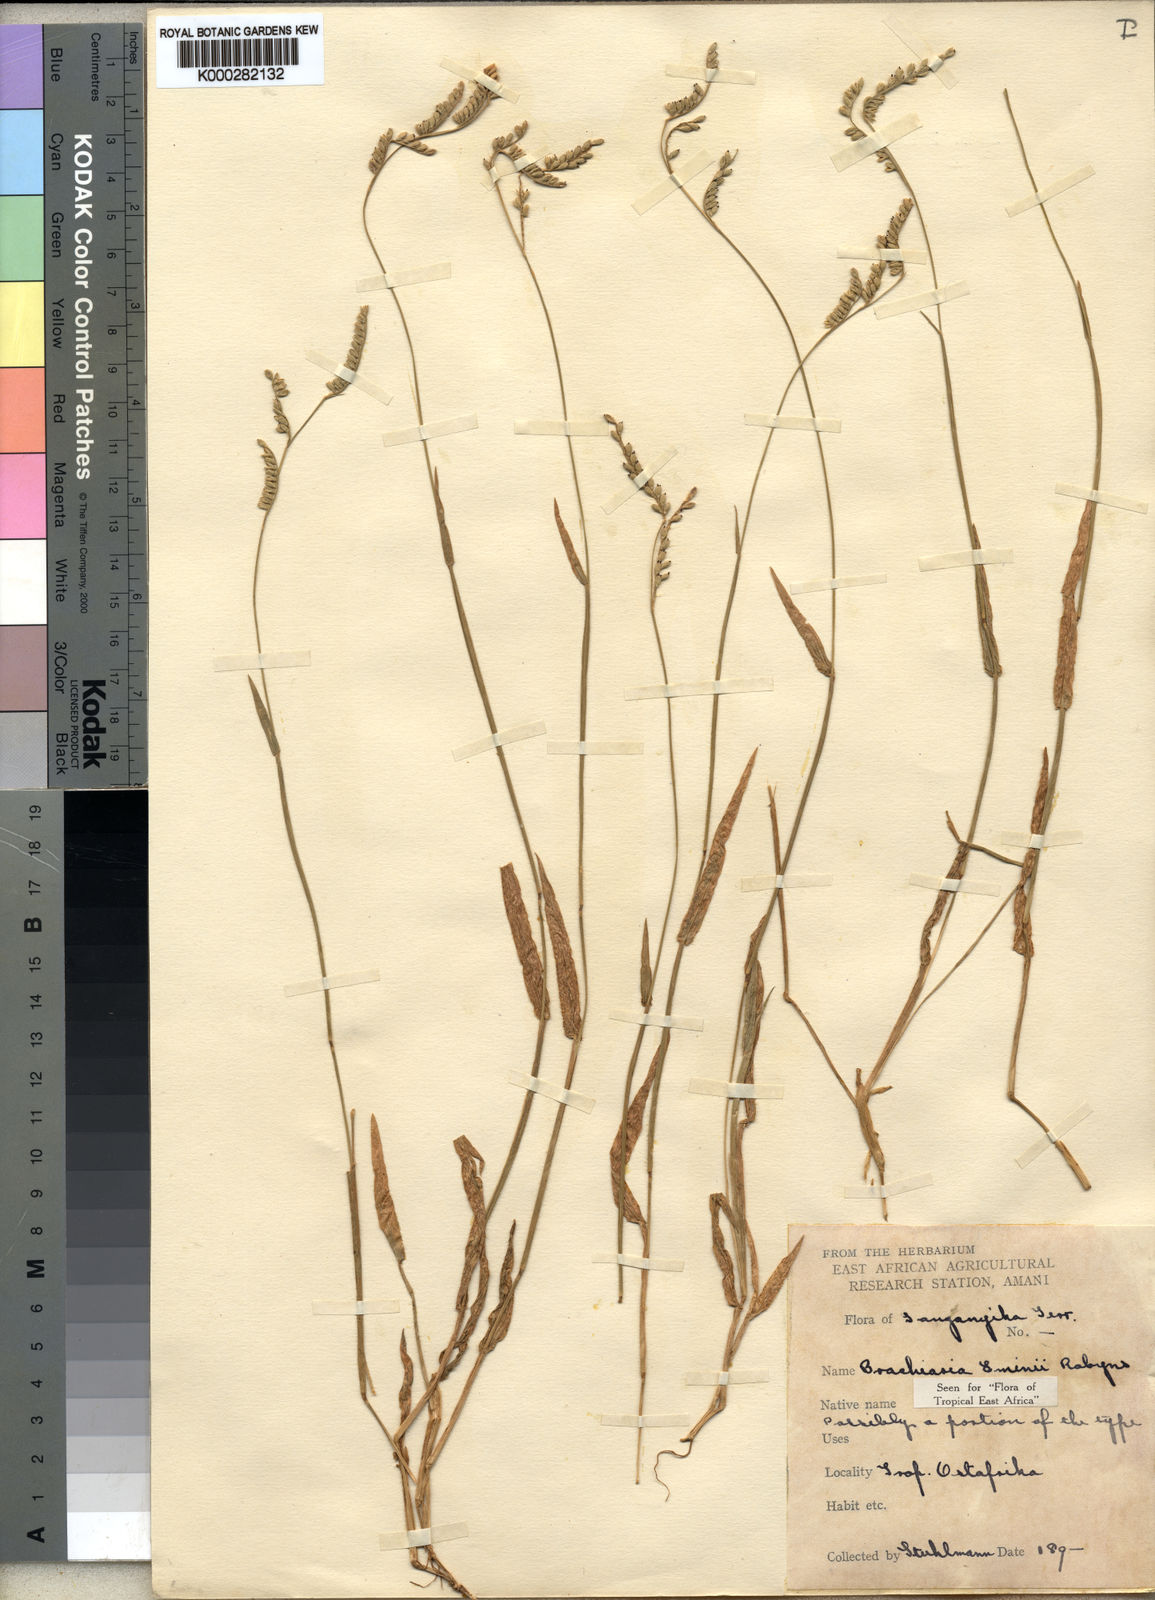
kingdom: Plantae
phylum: Tracheophyta
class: Liliopsida
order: Poales
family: Poaceae
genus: Urochloa
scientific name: Urochloa eminii
